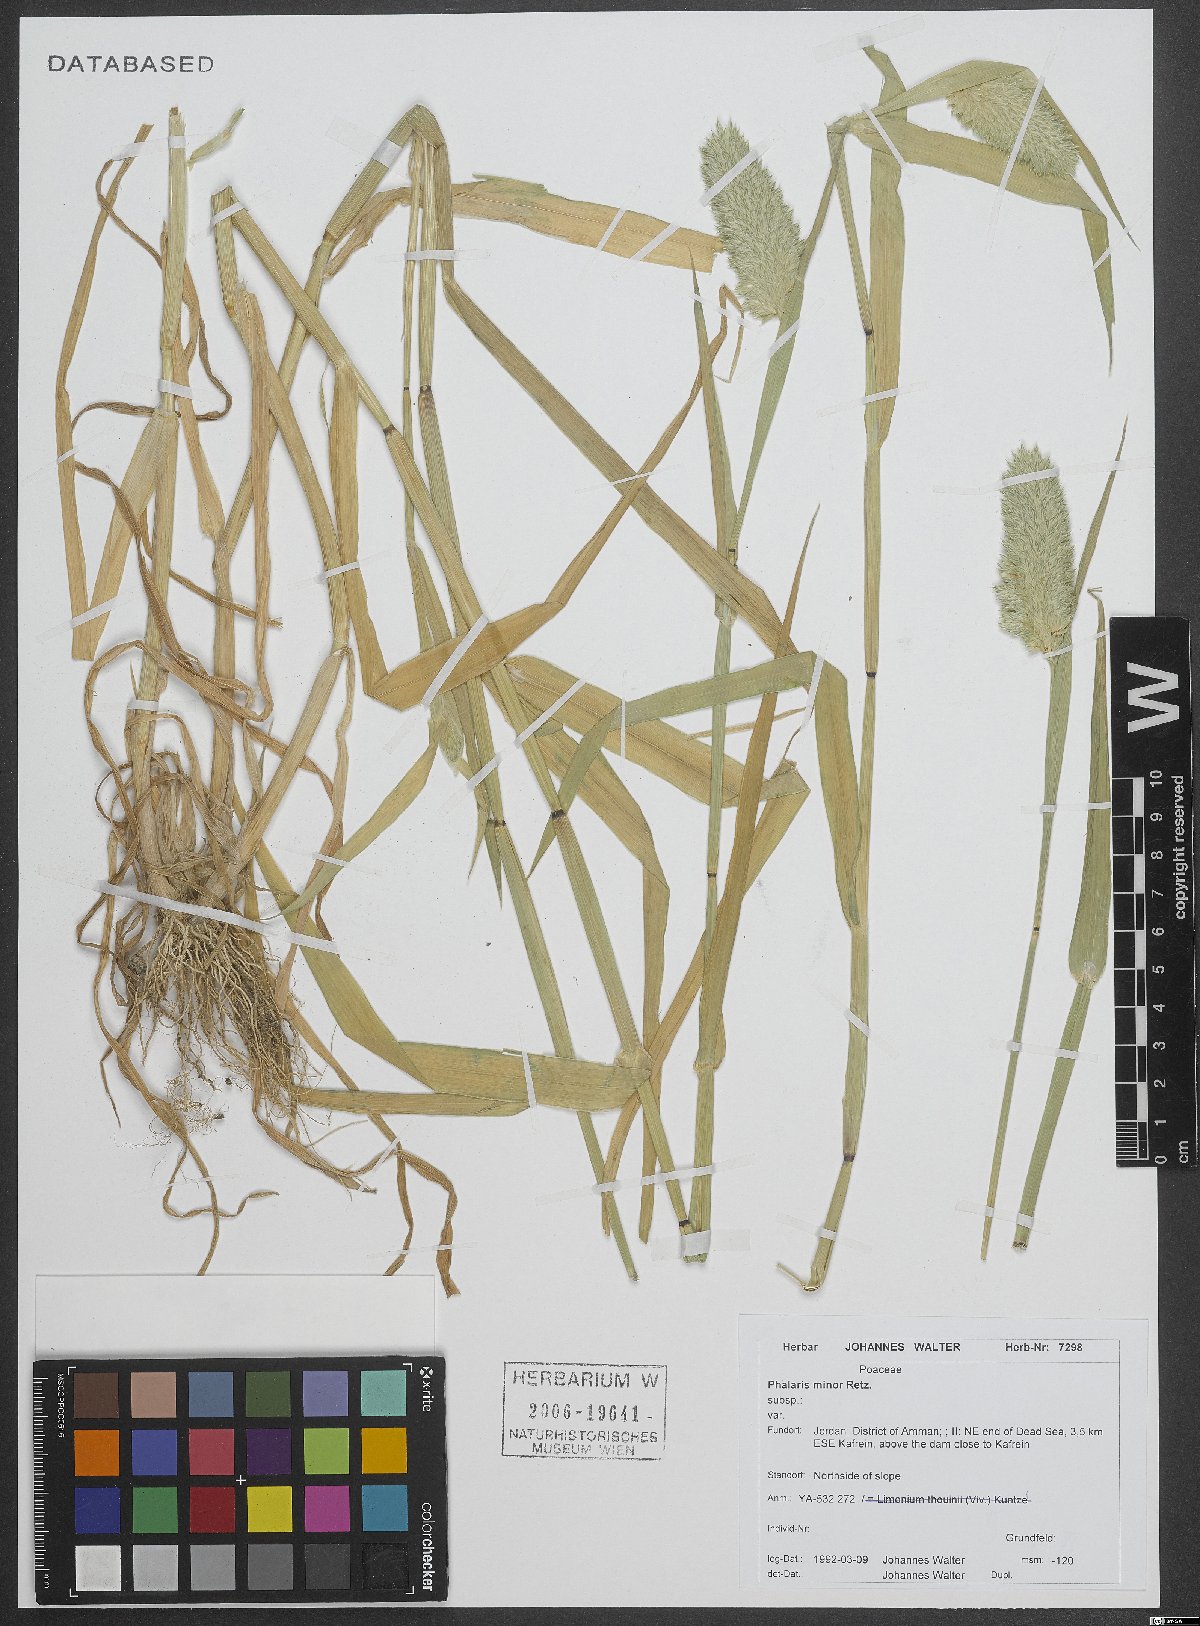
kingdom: Plantae
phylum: Tracheophyta
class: Liliopsida
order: Poales
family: Poaceae
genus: Phalaris
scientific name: Phalaris minor
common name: Littleseed canarygrass
